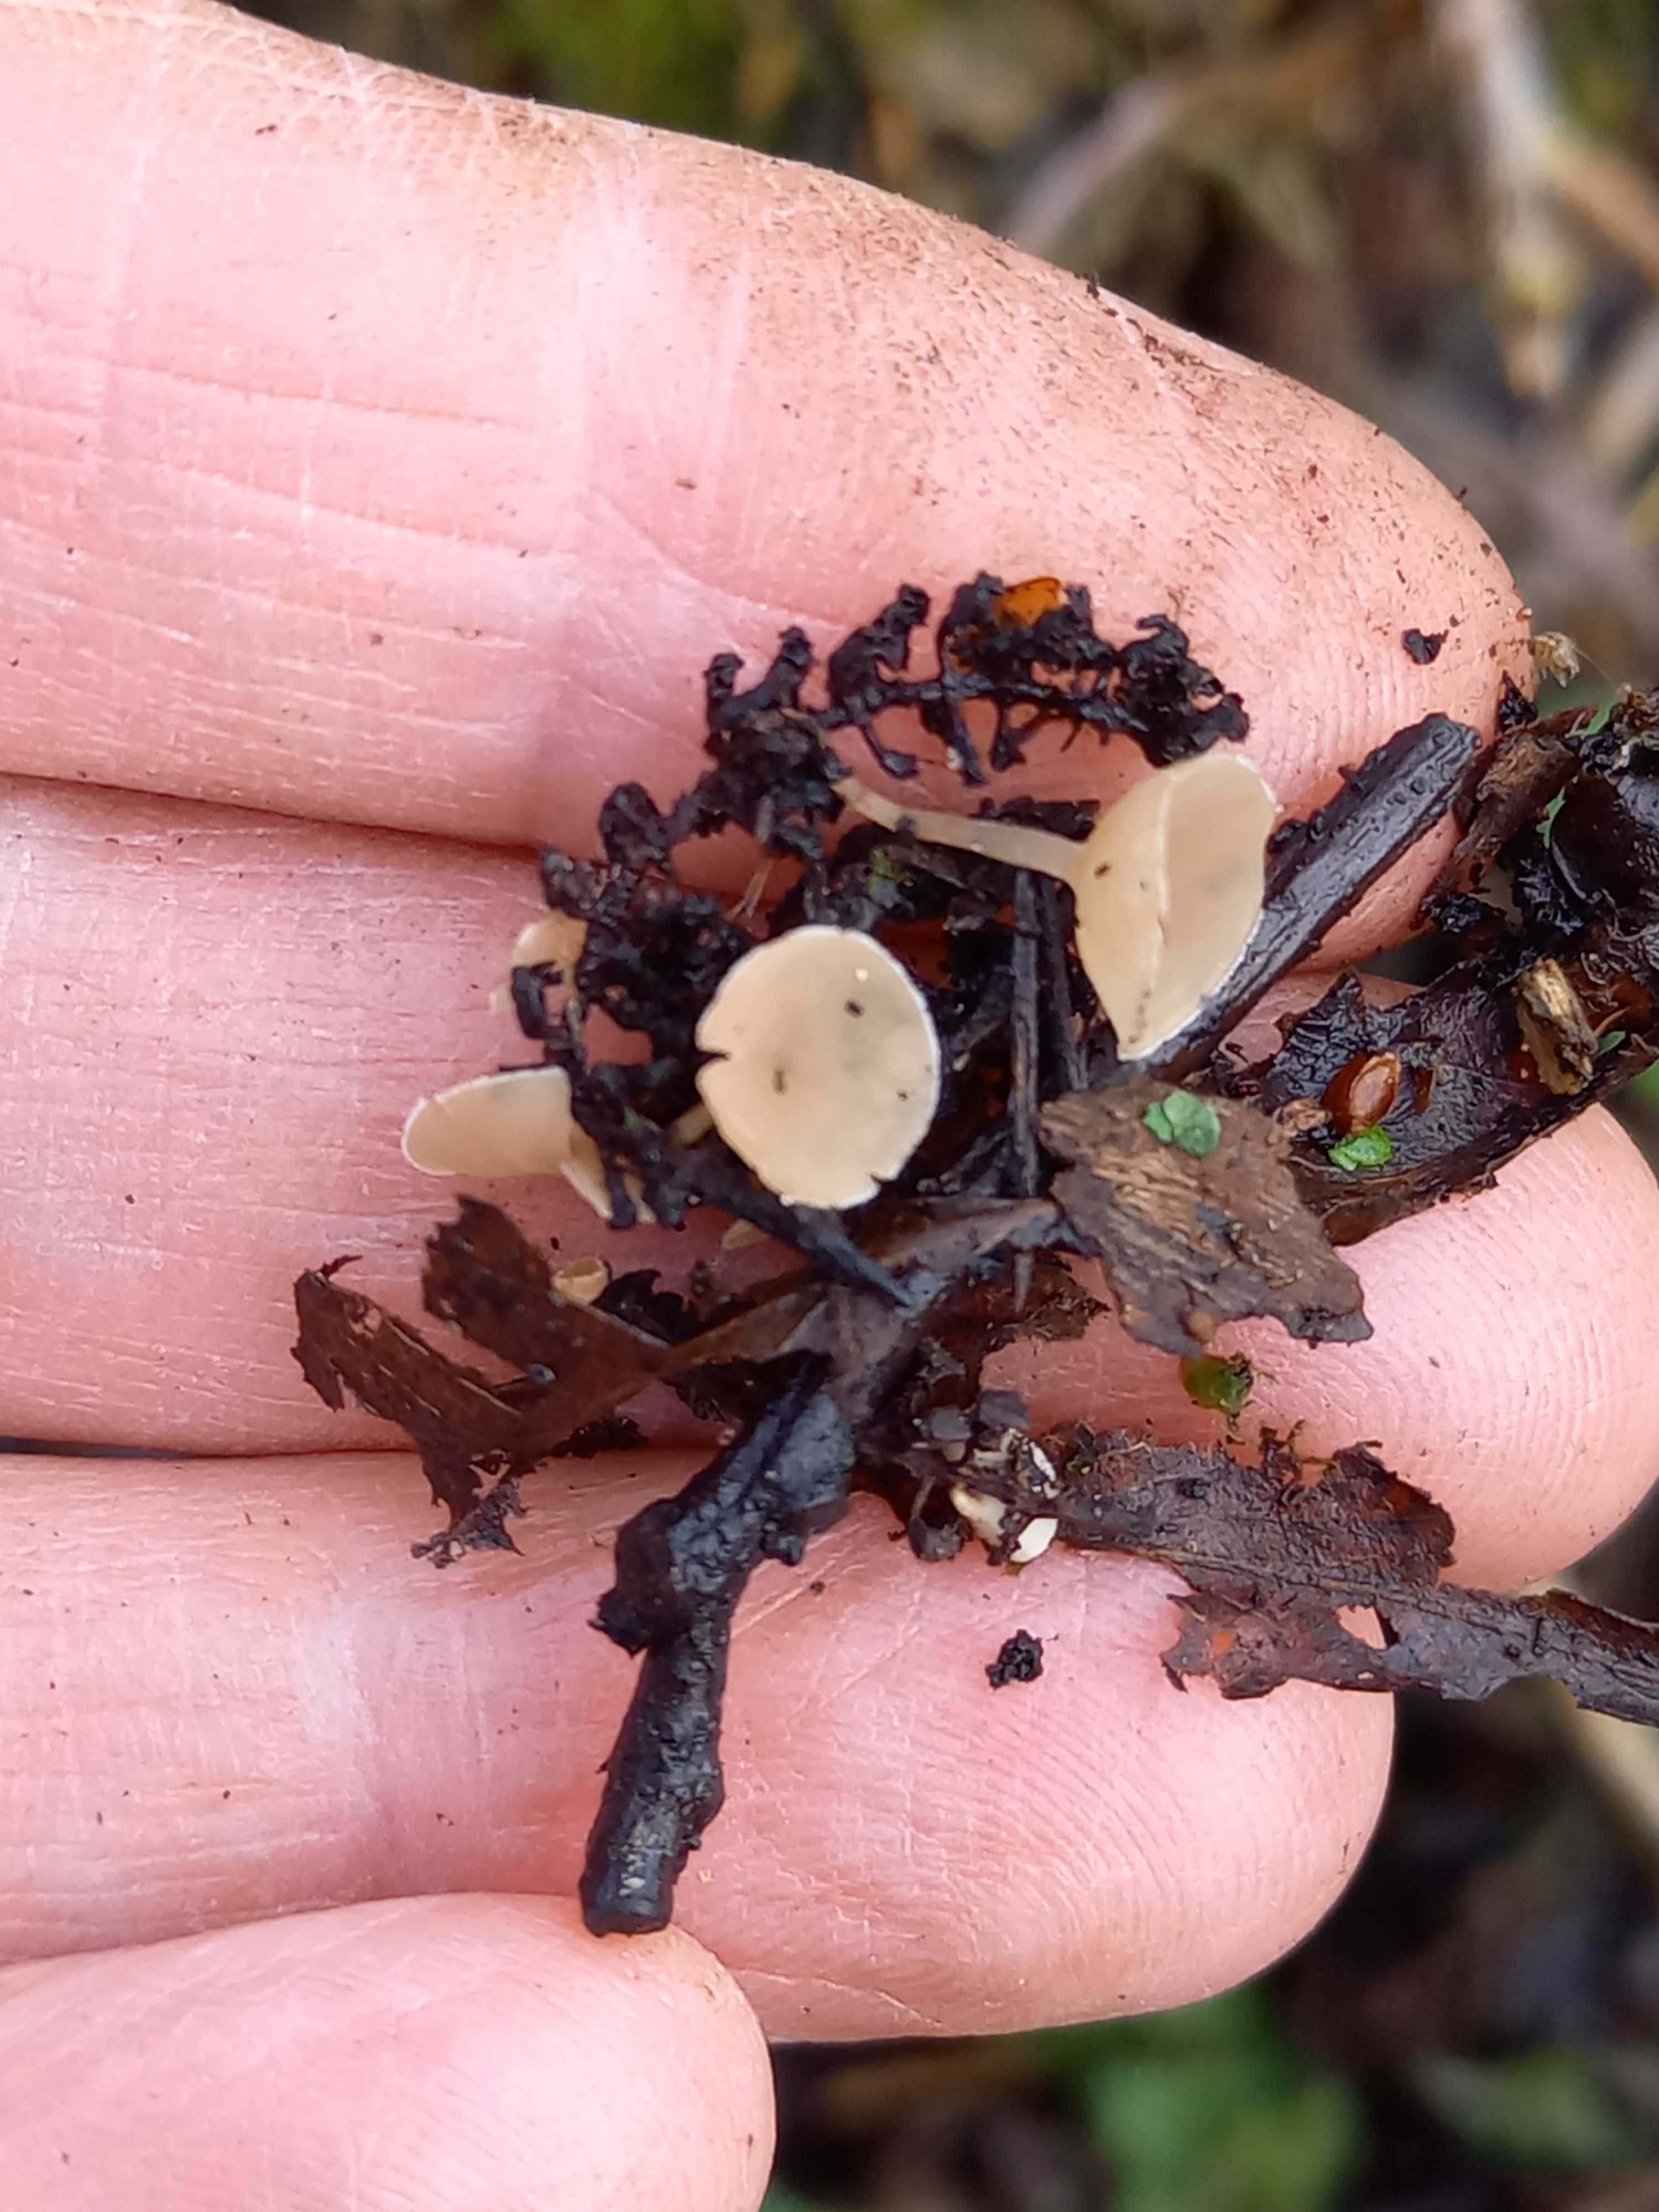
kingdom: Fungi
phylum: Ascomycota
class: Leotiomycetes
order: Helotiales
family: Sclerotiniaceae
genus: Ciboria
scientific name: Ciboria amentacea
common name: ellerakle-knoldskive
